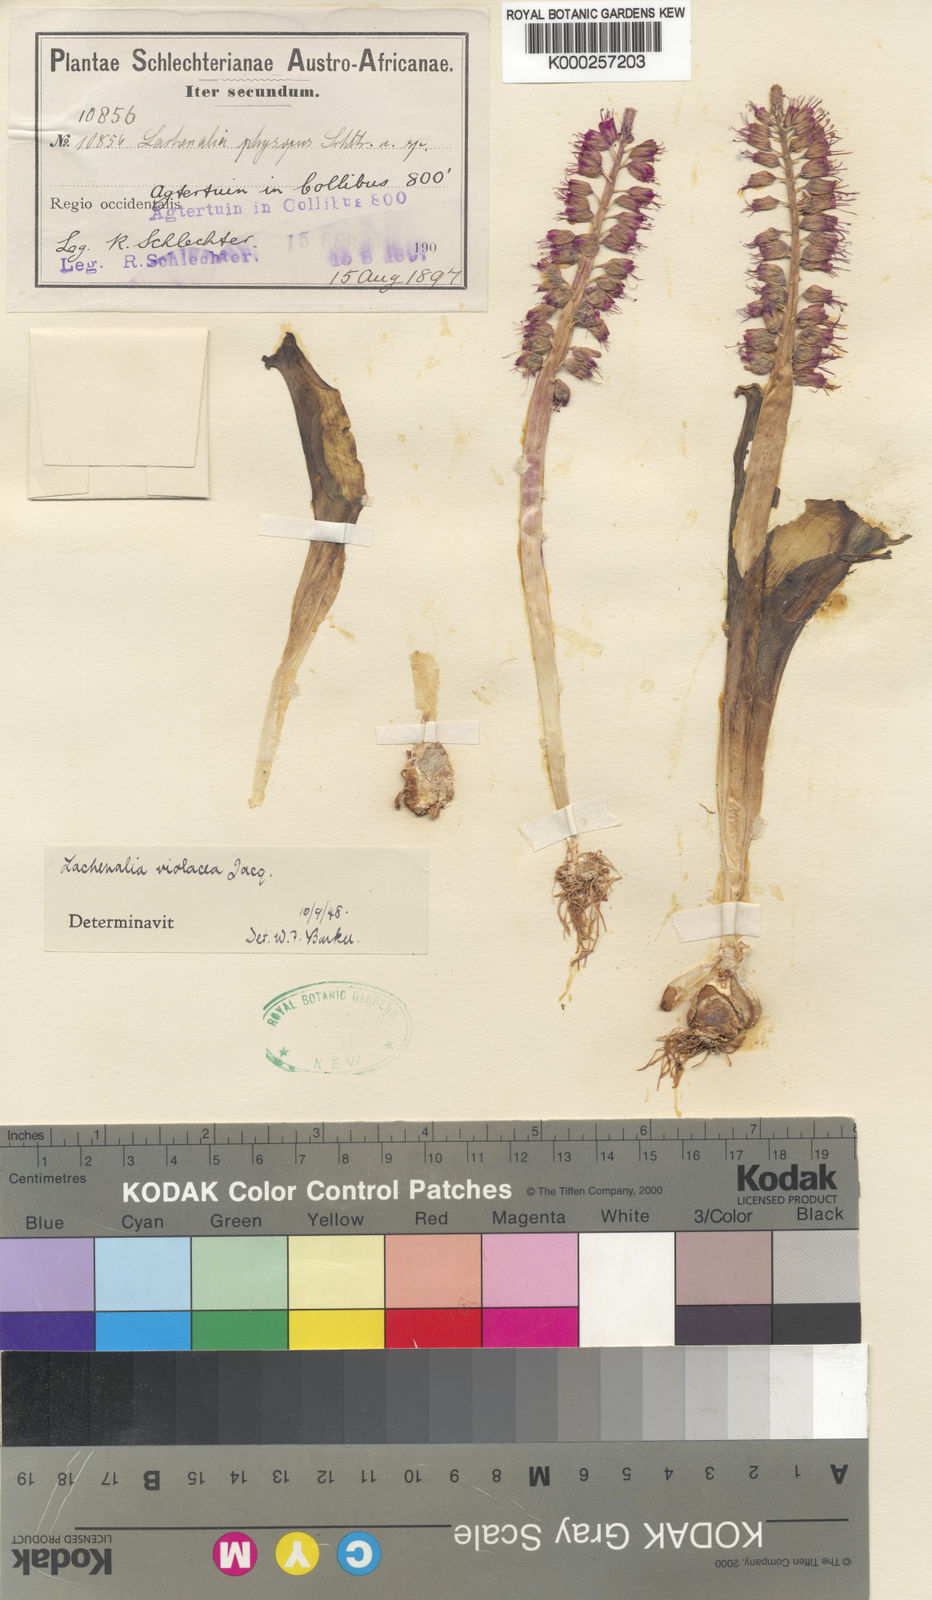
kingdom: Plantae
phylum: Tracheophyta
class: Liliopsida
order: Asparagales
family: Asparagaceae
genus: Lachenalia
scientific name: Lachenalia
